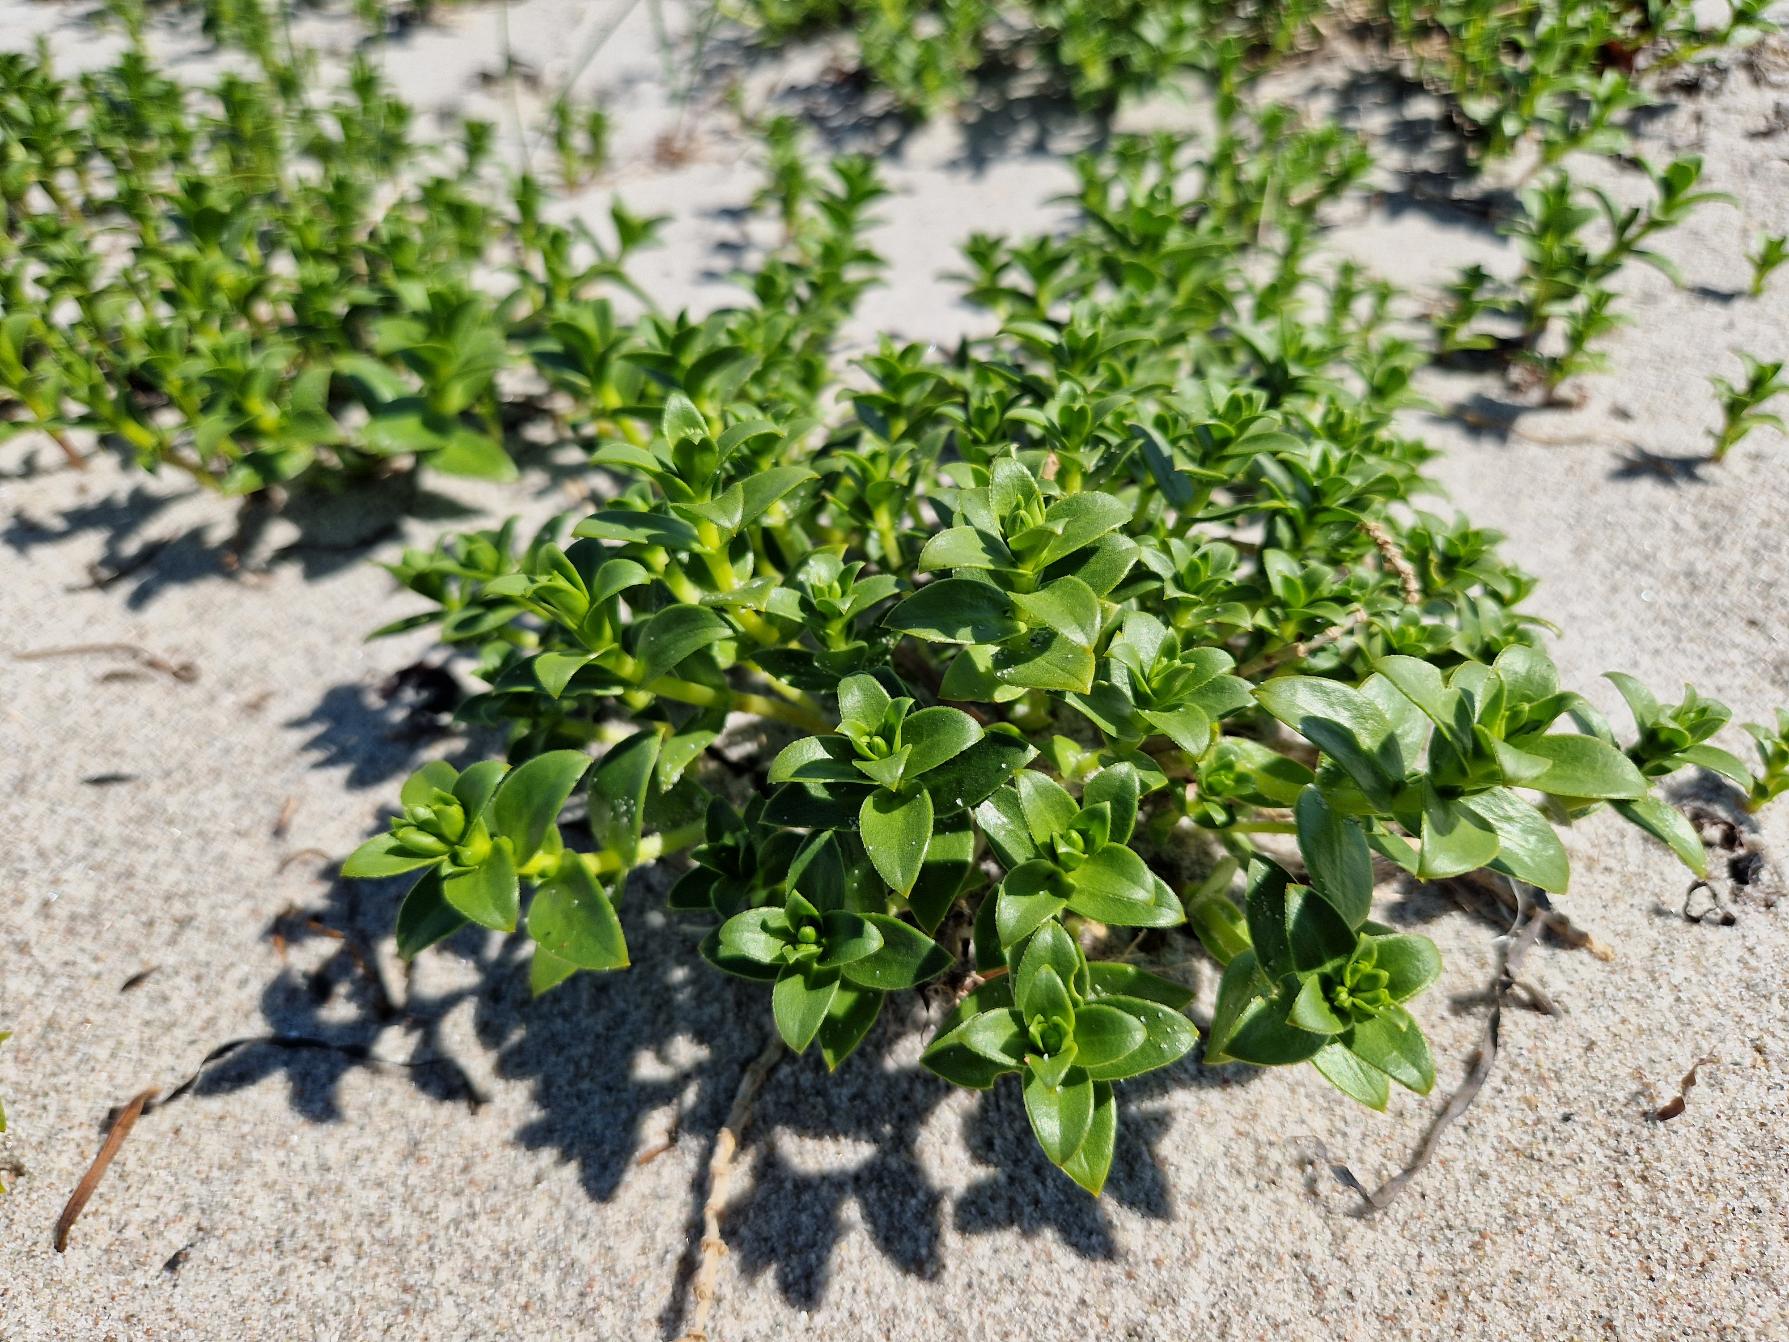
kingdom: Plantae
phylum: Tracheophyta
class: Magnoliopsida
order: Caryophyllales
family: Caryophyllaceae
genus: Honckenya
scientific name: Honckenya peploides
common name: Strandarve
